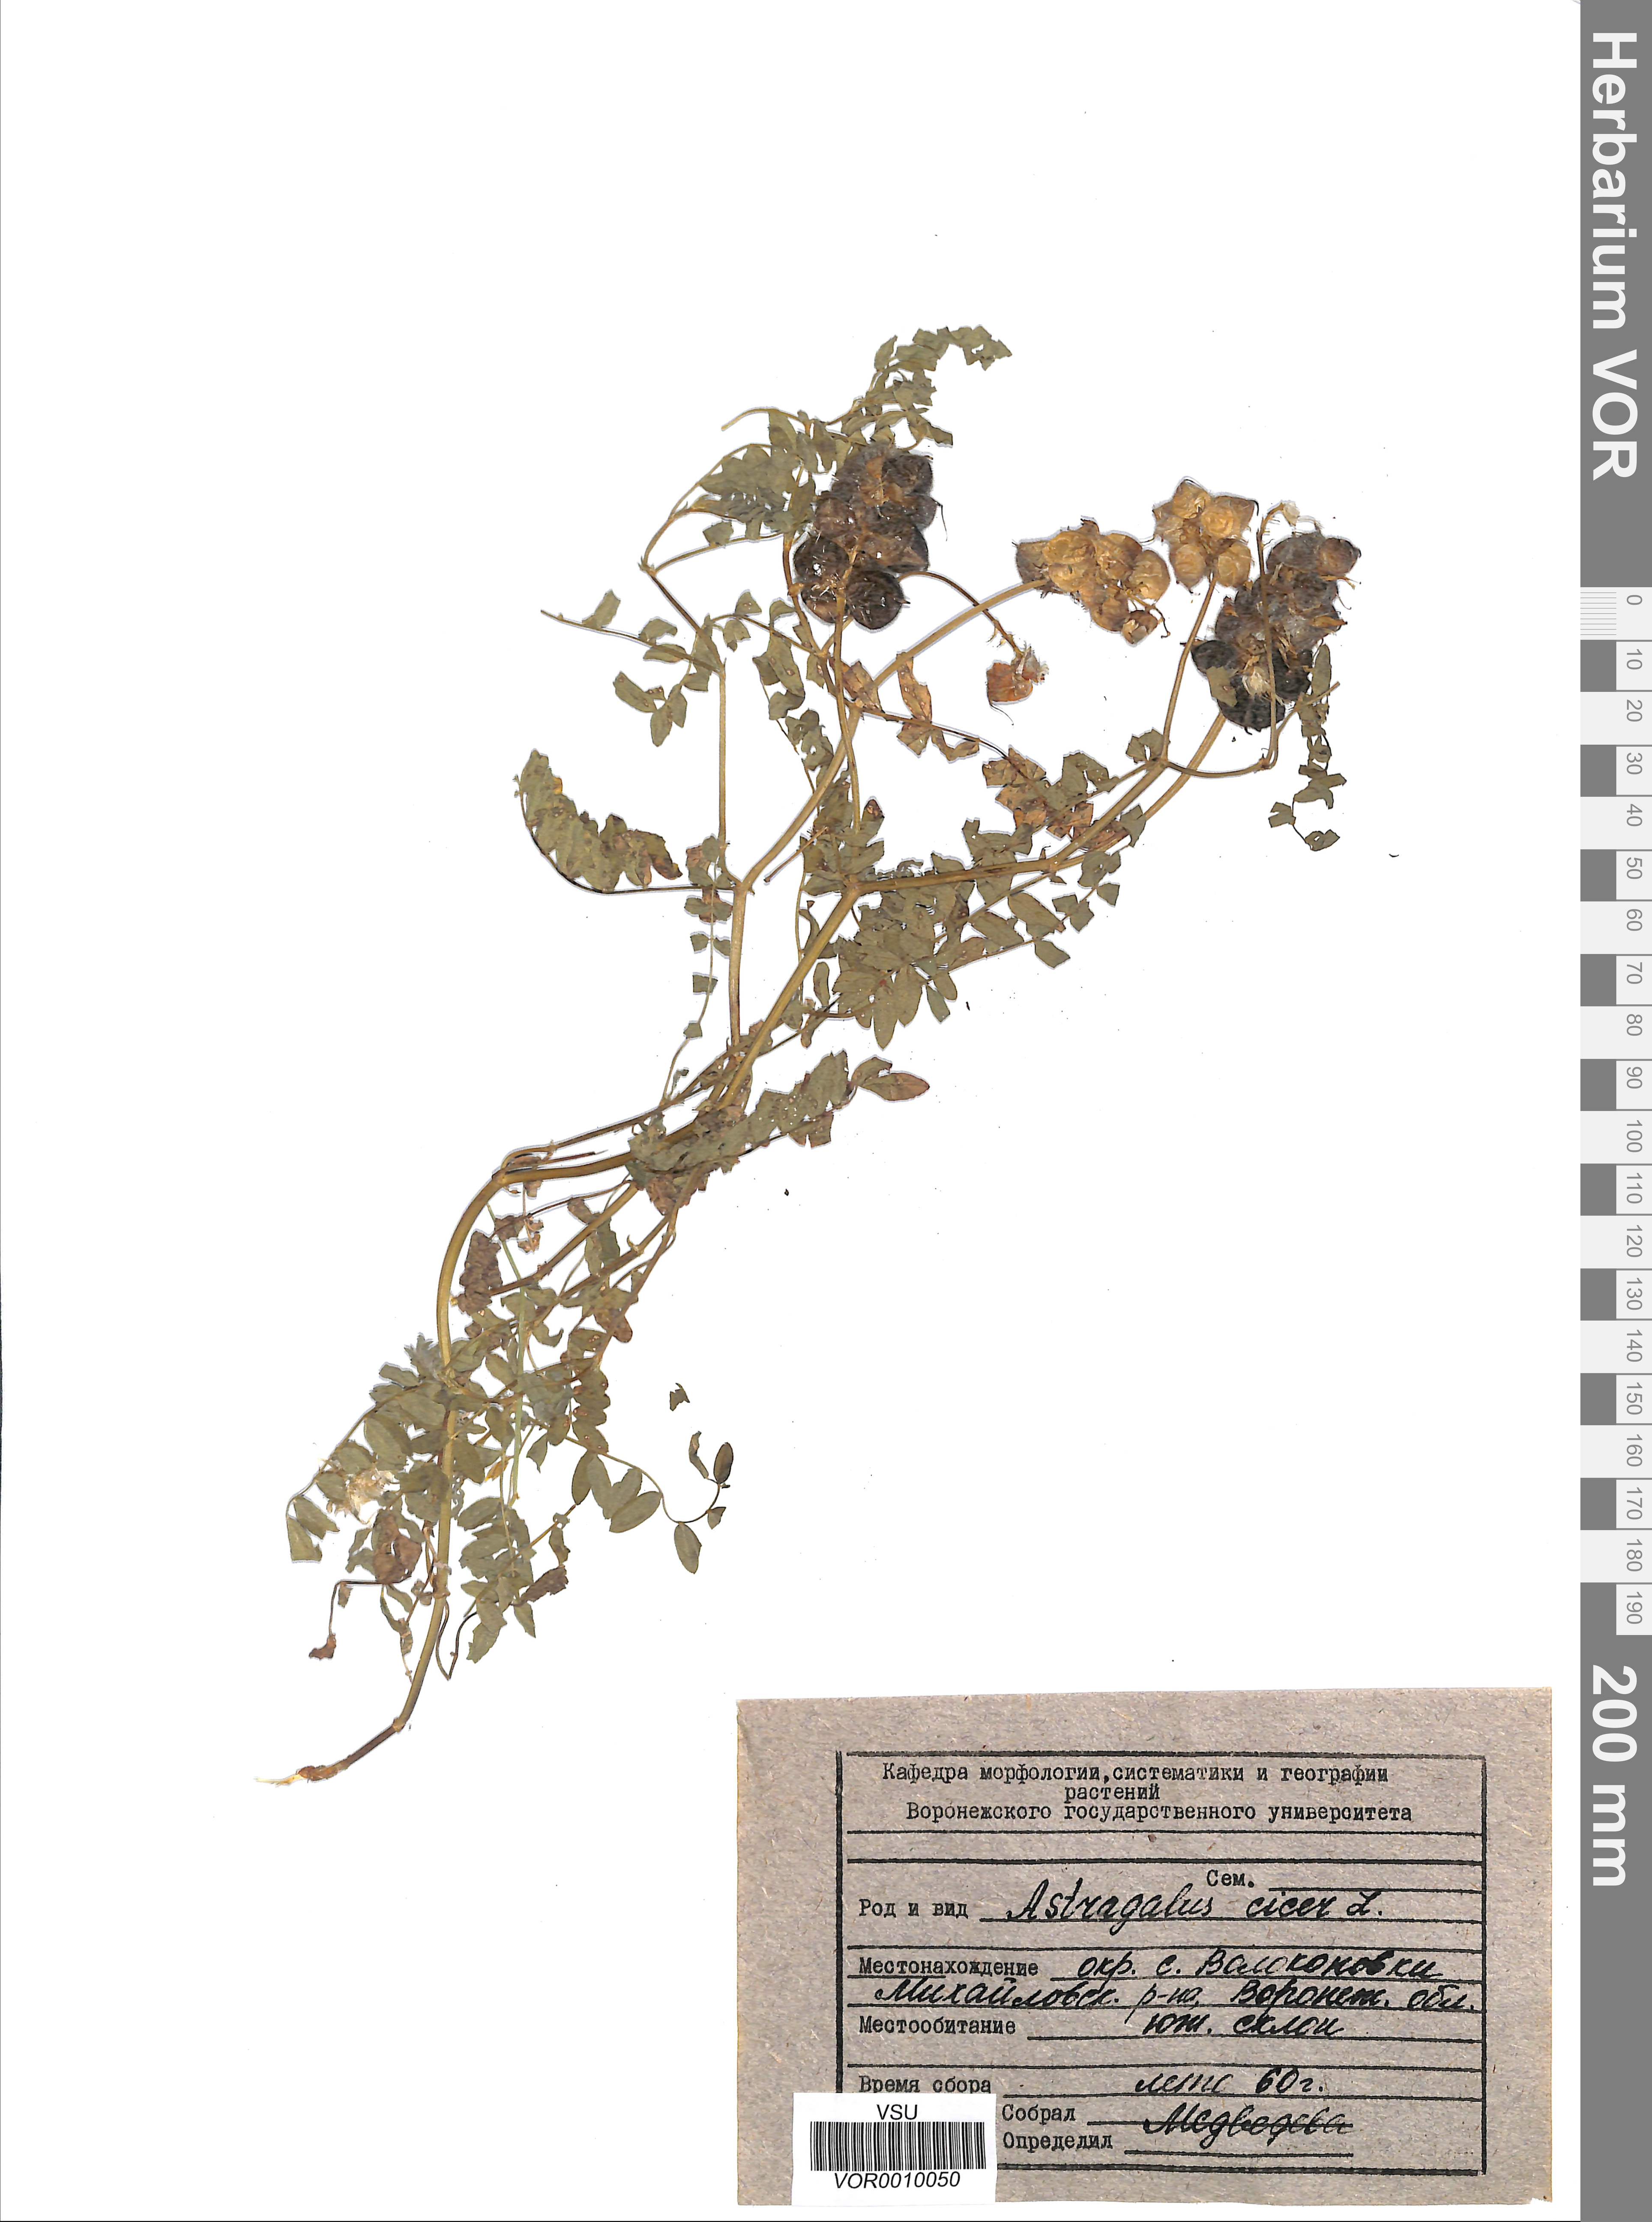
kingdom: Plantae
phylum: Tracheophyta
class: Magnoliopsida
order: Fabales
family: Fabaceae
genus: Astragalus
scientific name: Astragalus cicer
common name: Chick-pea milk-vetch
